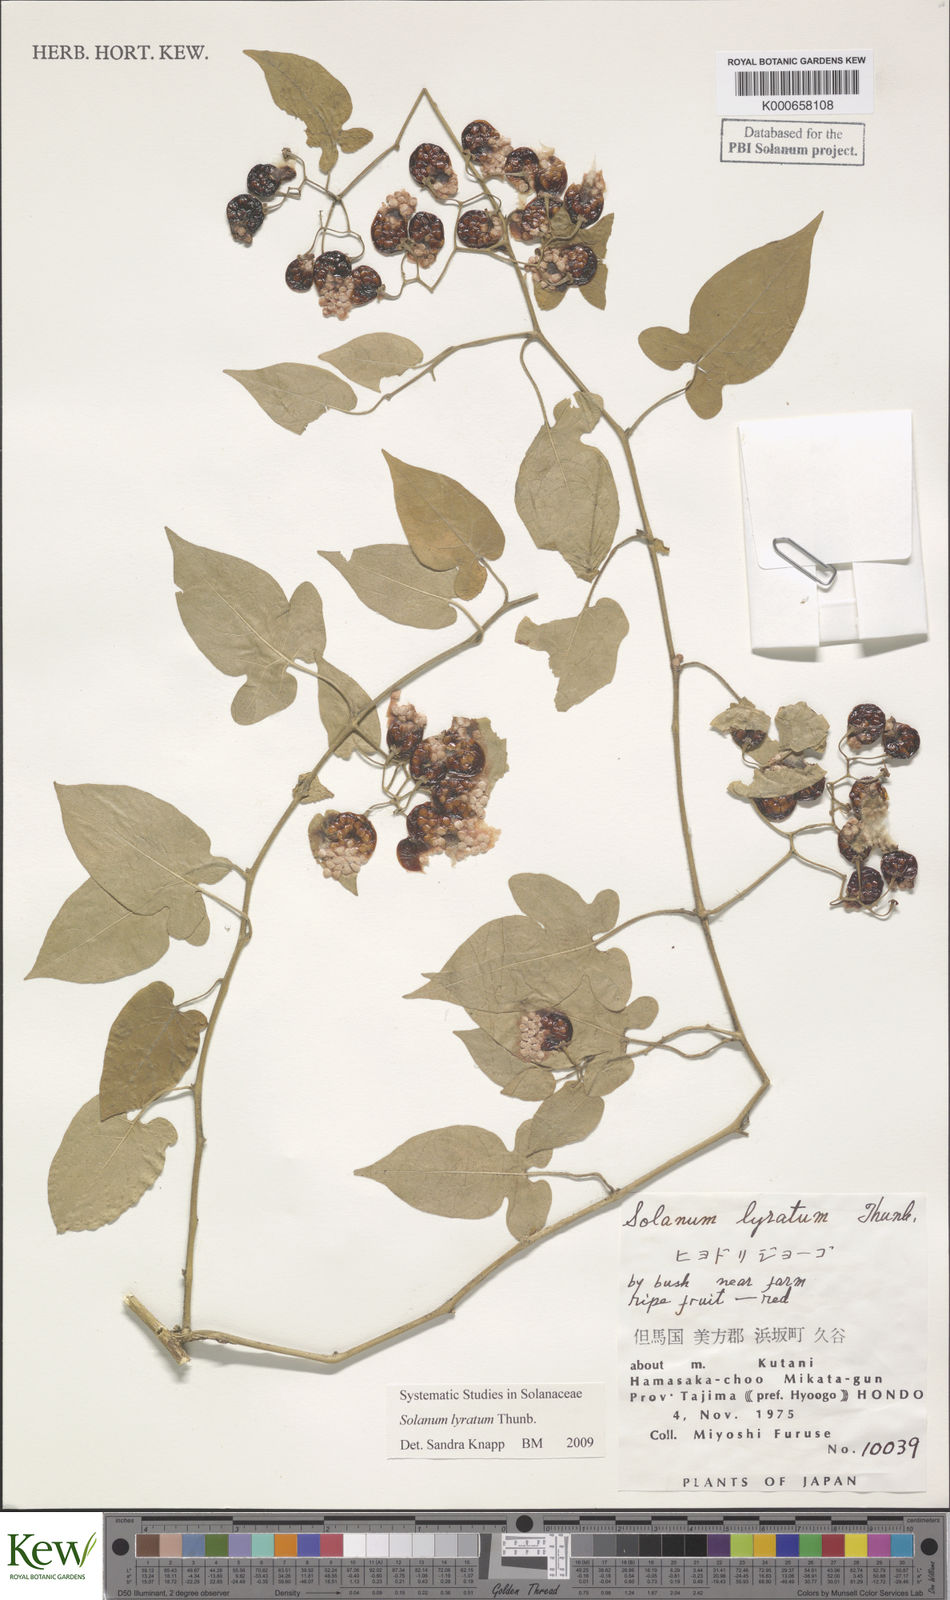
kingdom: Plantae
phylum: Tracheophyta
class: Magnoliopsida
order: Solanales
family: Solanaceae
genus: Solanum
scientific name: Solanum lyratum
